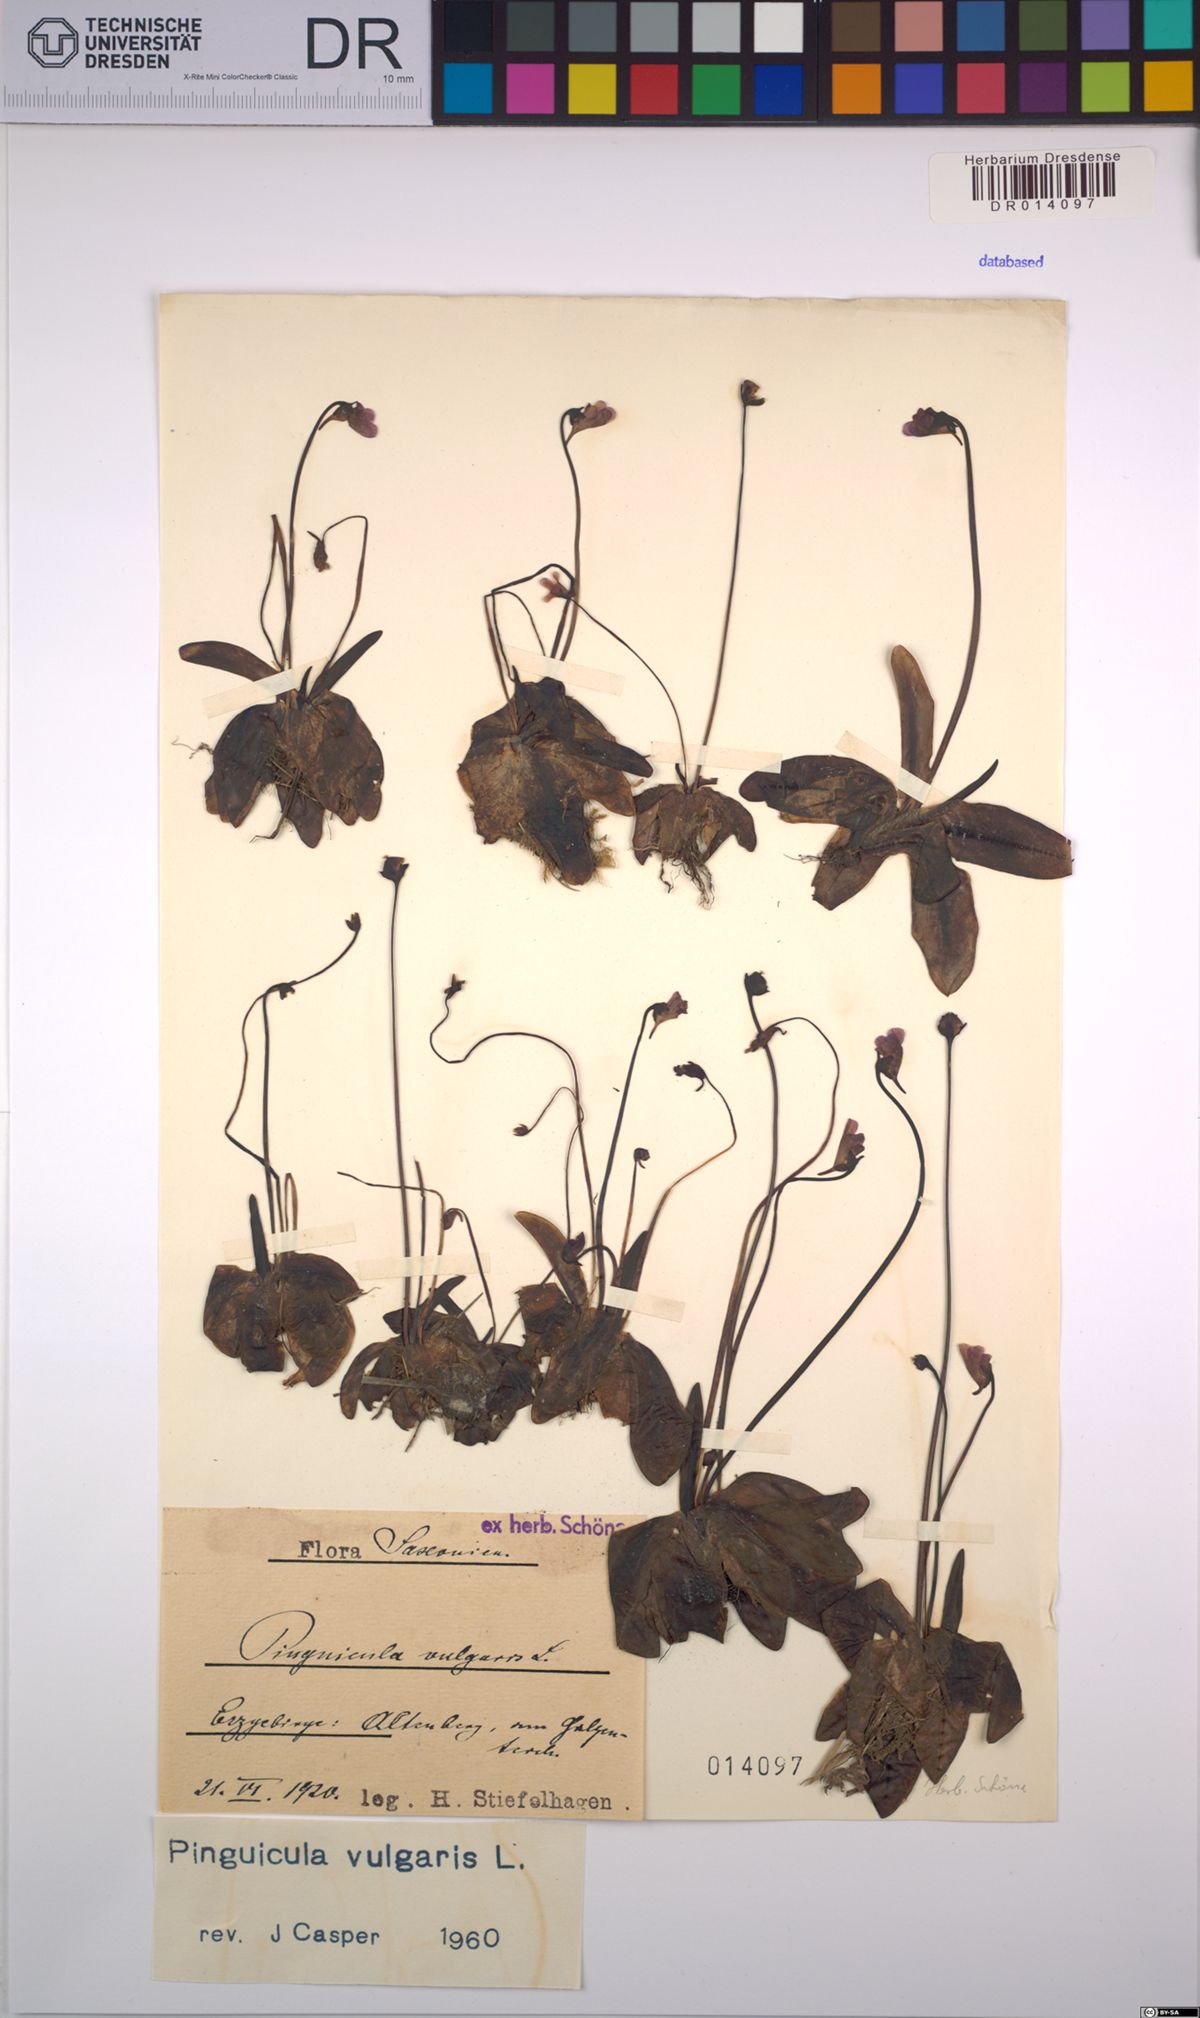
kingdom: Plantae
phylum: Tracheophyta
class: Magnoliopsida
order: Lamiales
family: Lentibulariaceae
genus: Pinguicula
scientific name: Pinguicula vulgaris
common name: Common butterwort
